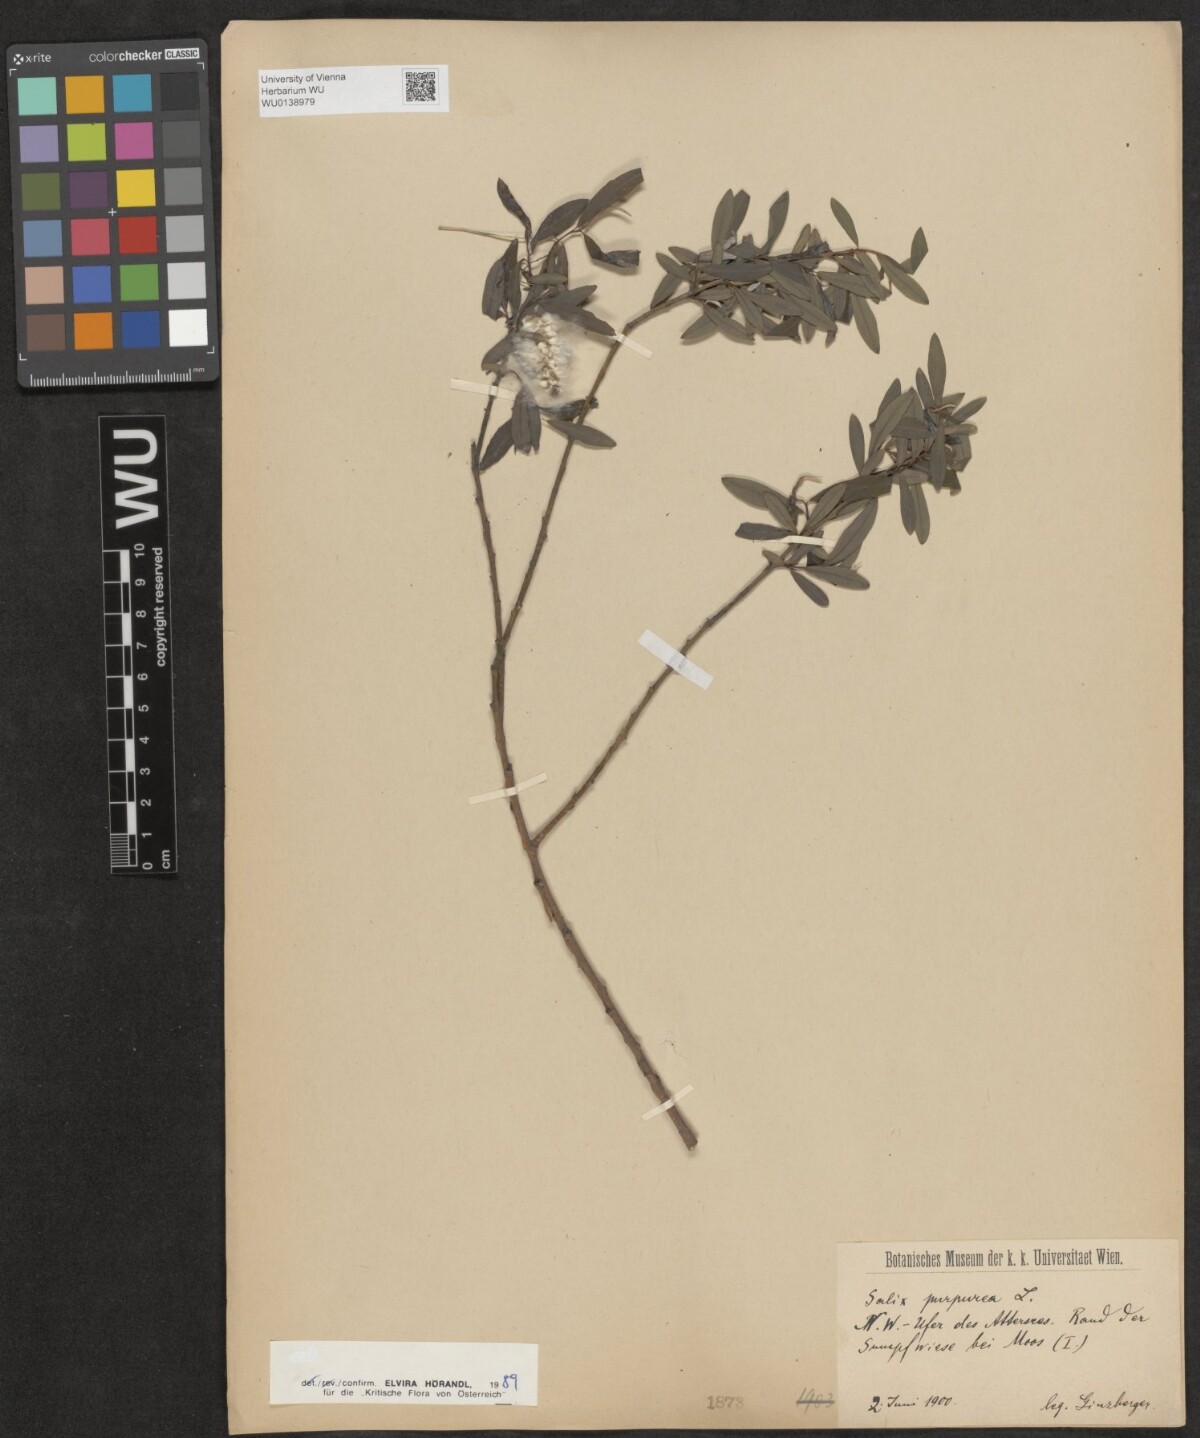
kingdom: Plantae
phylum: Tracheophyta
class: Magnoliopsida
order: Malpighiales
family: Salicaceae
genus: Salix
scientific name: Salix purpurea
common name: Purple willow
